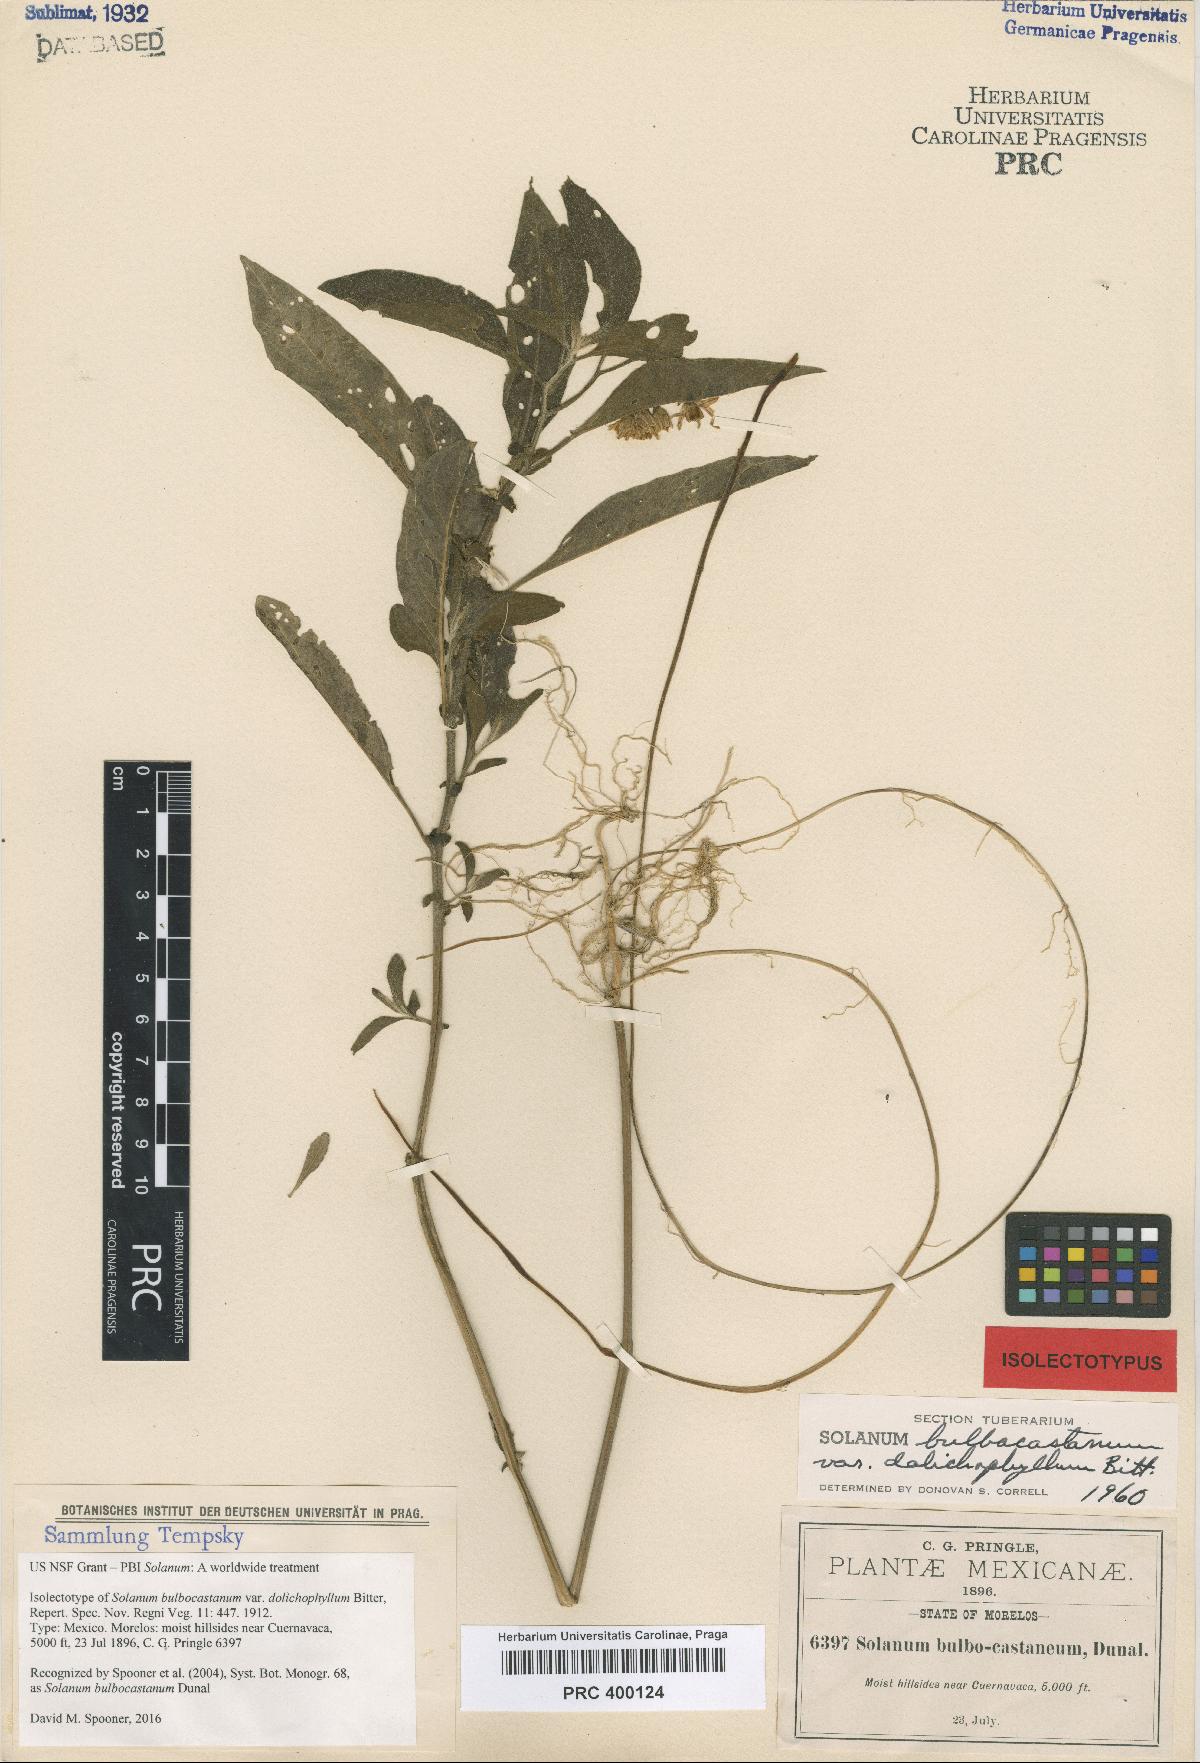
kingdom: Plantae
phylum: Tracheophyta
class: Magnoliopsida
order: Solanales
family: Solanaceae
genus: Solanum
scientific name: Solanum bulbocastanum
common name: Ornamental nightshade
